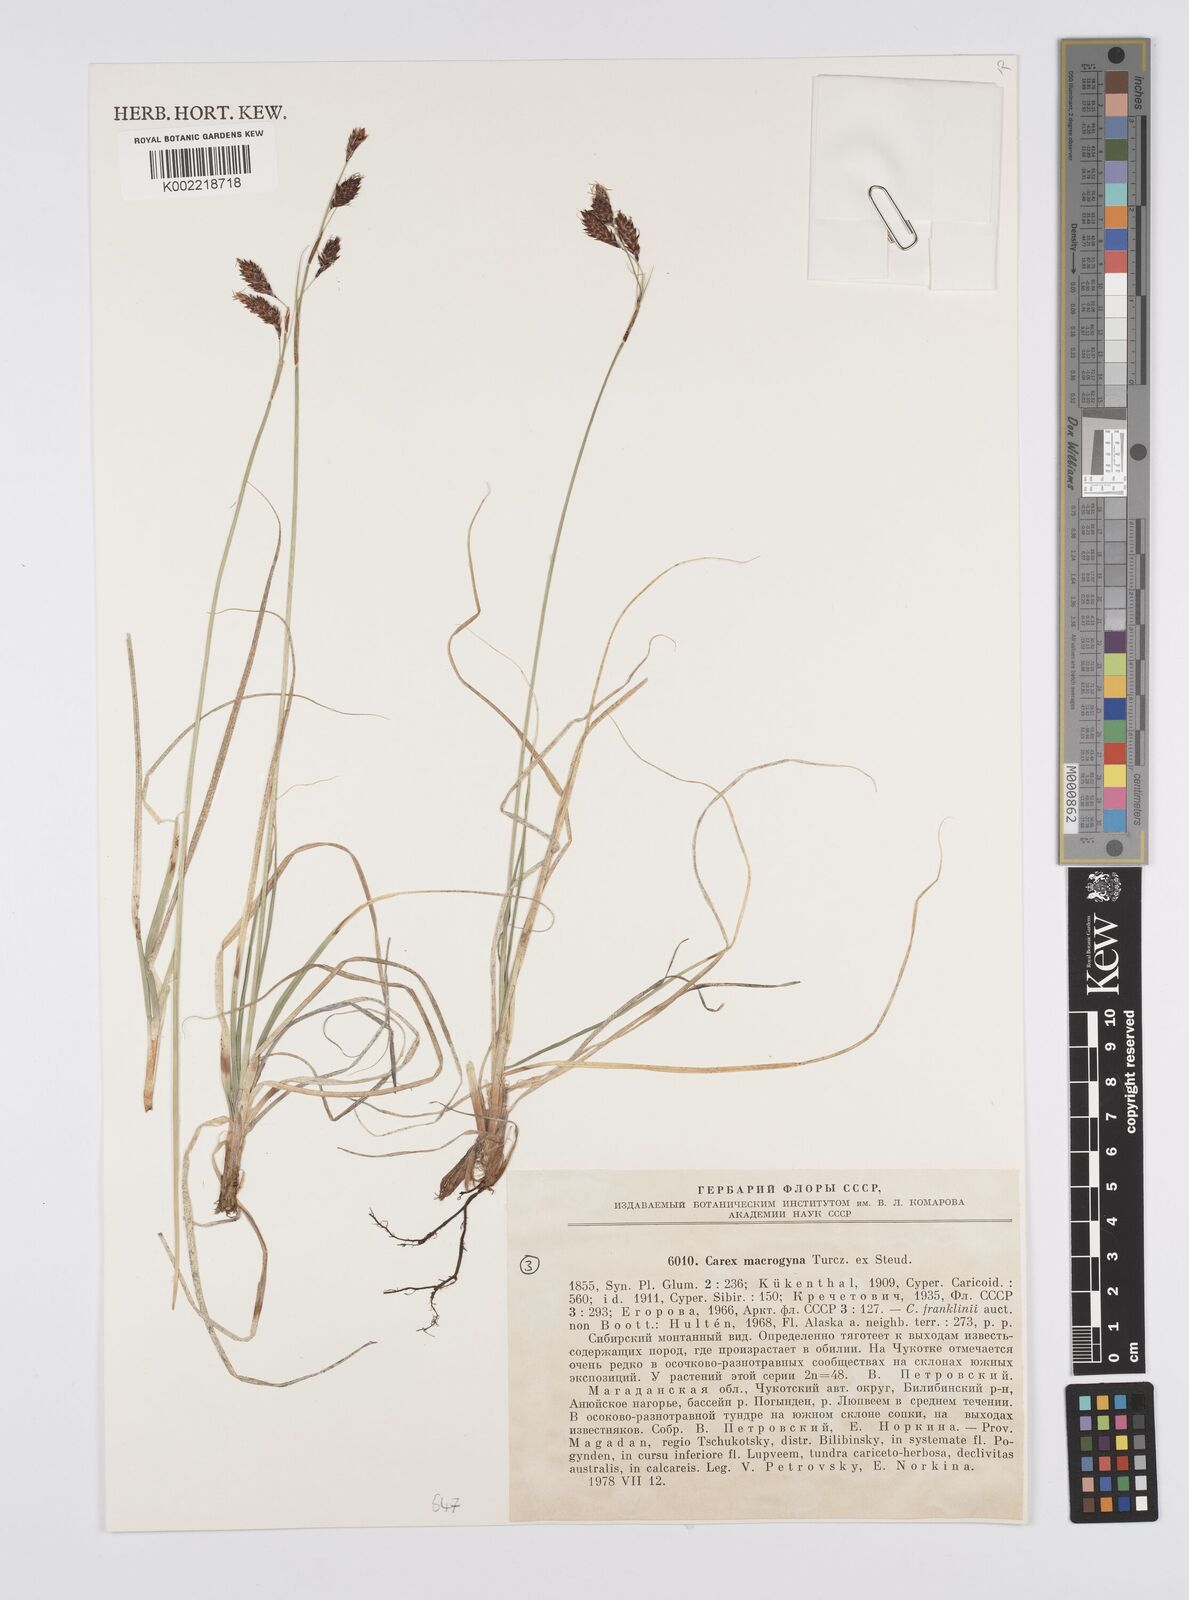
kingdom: Plantae
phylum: Tracheophyta
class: Liliopsida
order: Poales
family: Cyperaceae
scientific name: Cyperaceae
